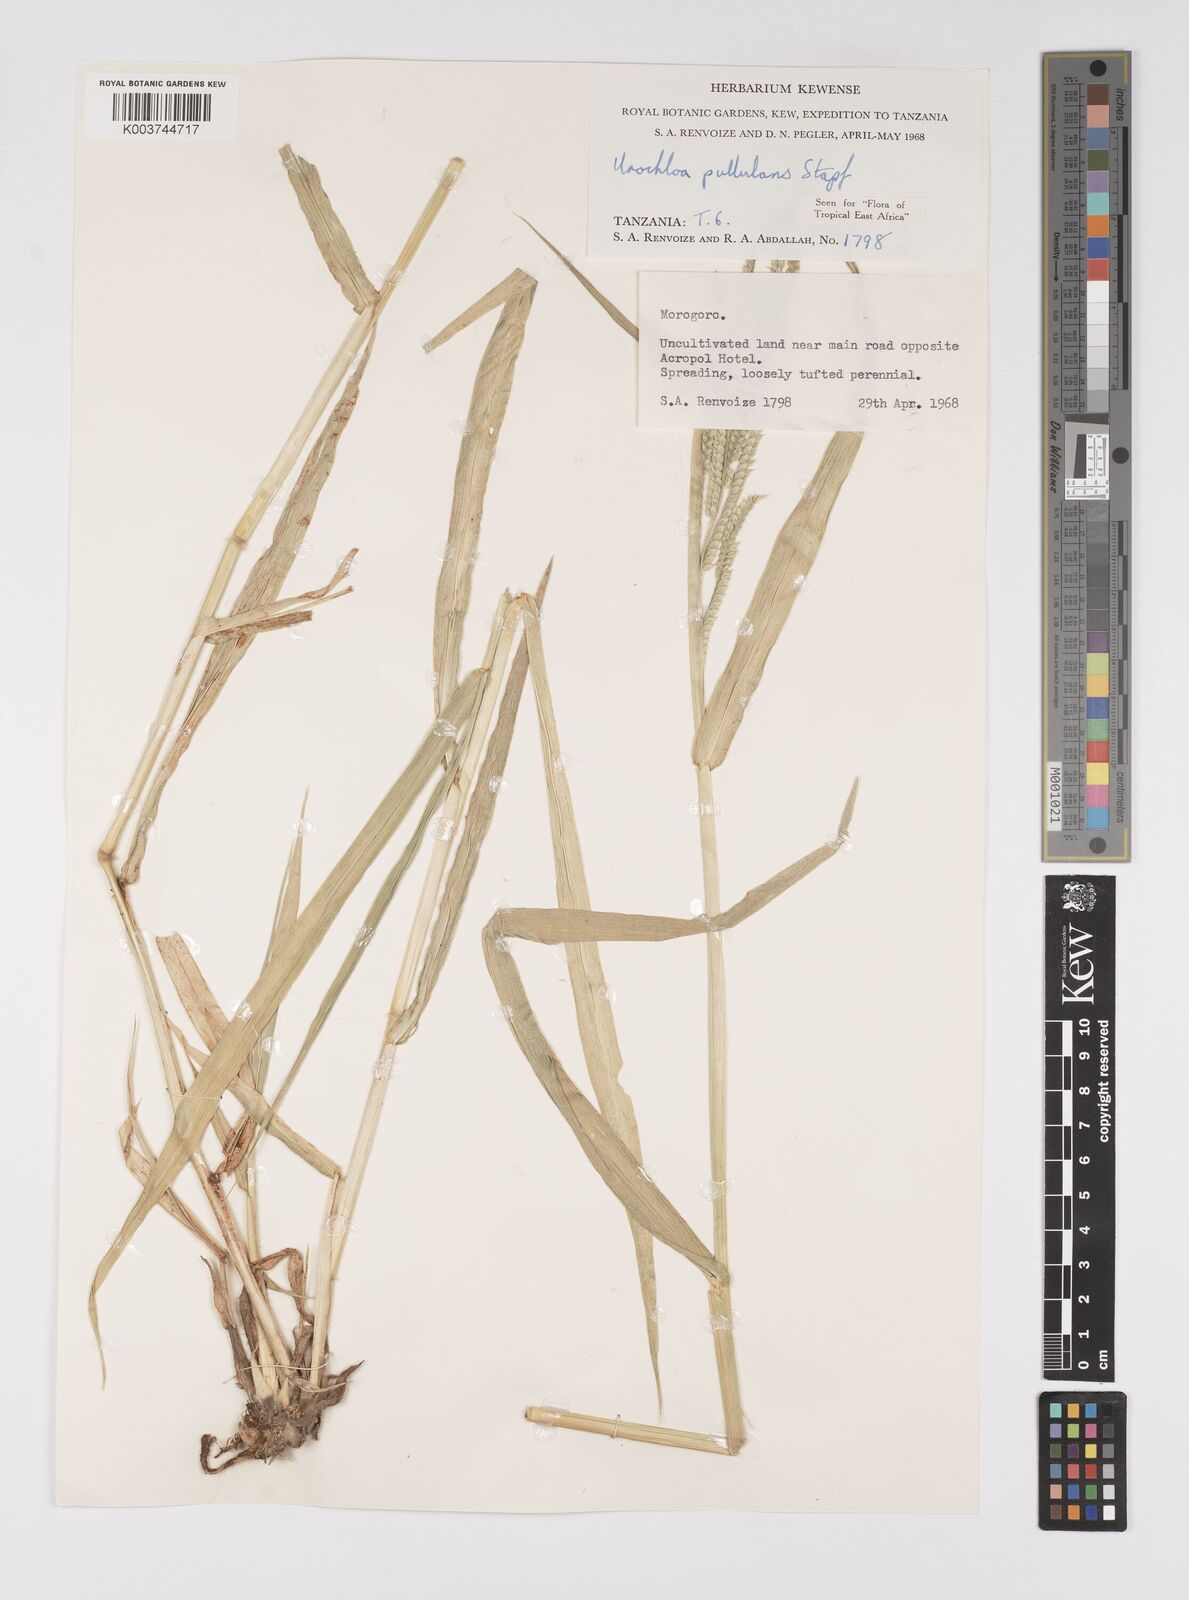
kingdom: Plantae
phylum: Tracheophyta
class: Liliopsida
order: Poales
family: Poaceae
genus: Urochloa
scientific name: Urochloa trichopus
